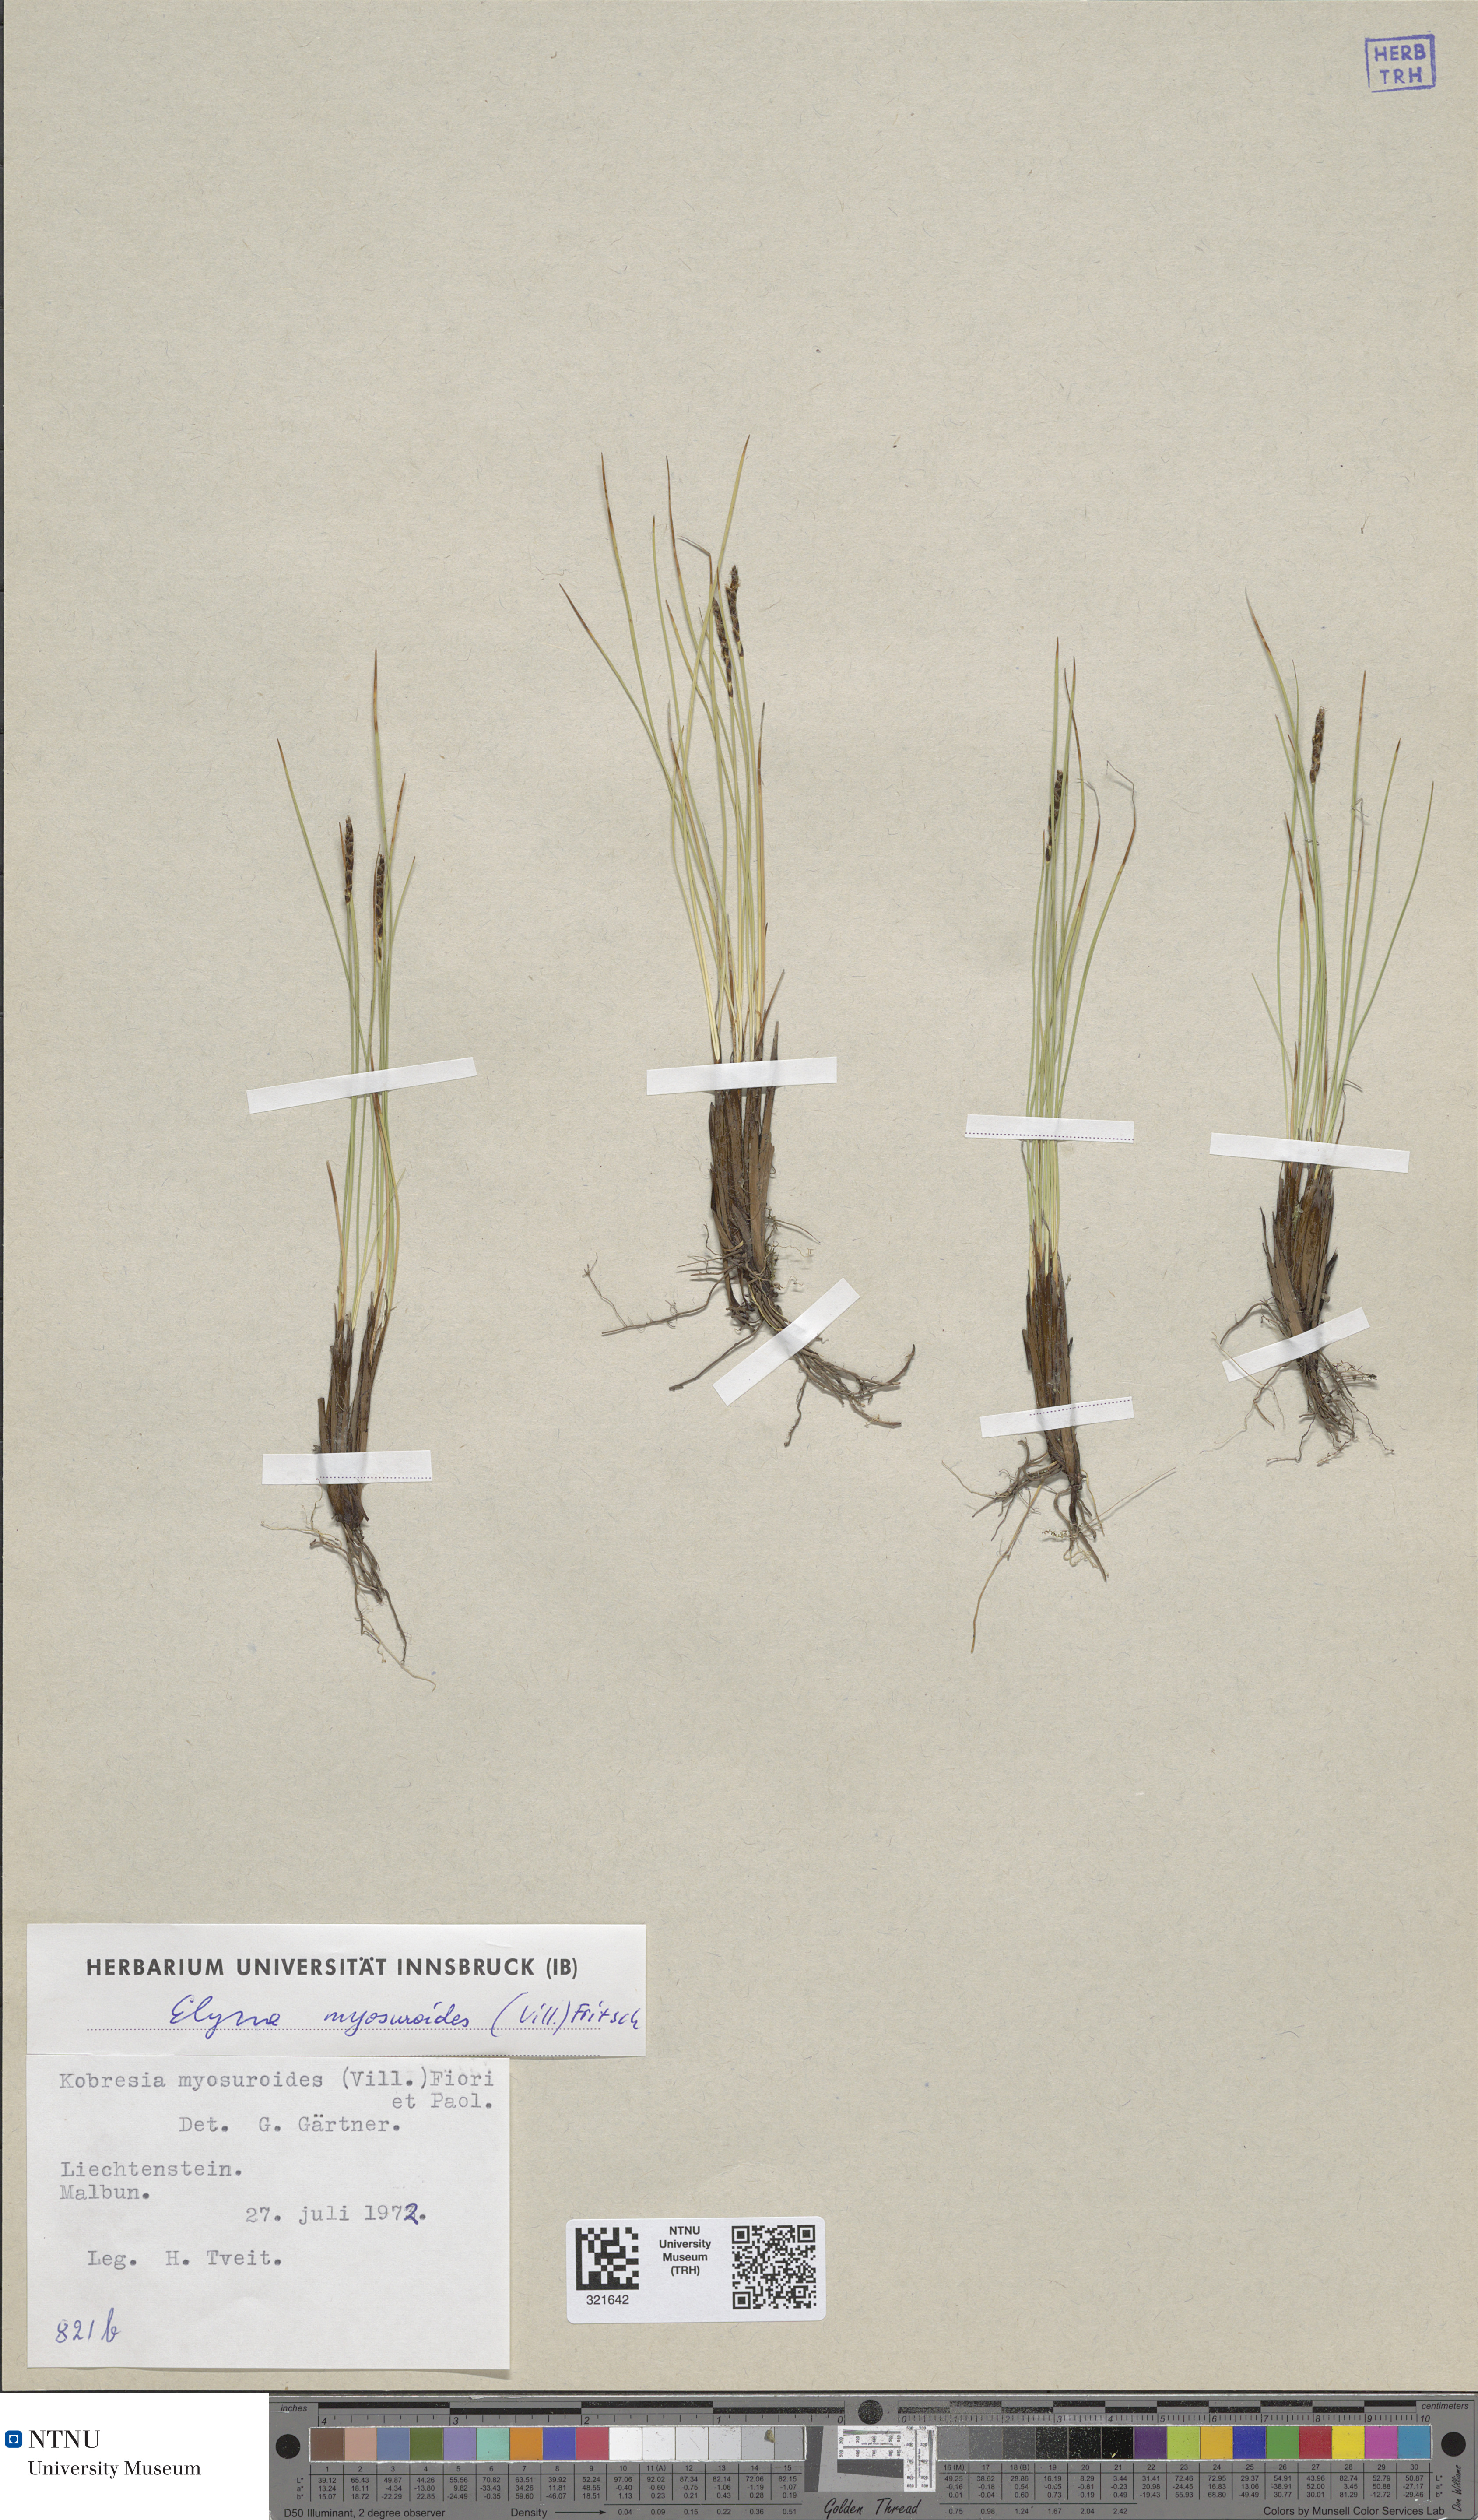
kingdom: Plantae
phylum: Tracheophyta
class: Liliopsida
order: Poales
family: Cyperaceae
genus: Carex
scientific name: Carex myosuroides
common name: Bellard's bog sedge
